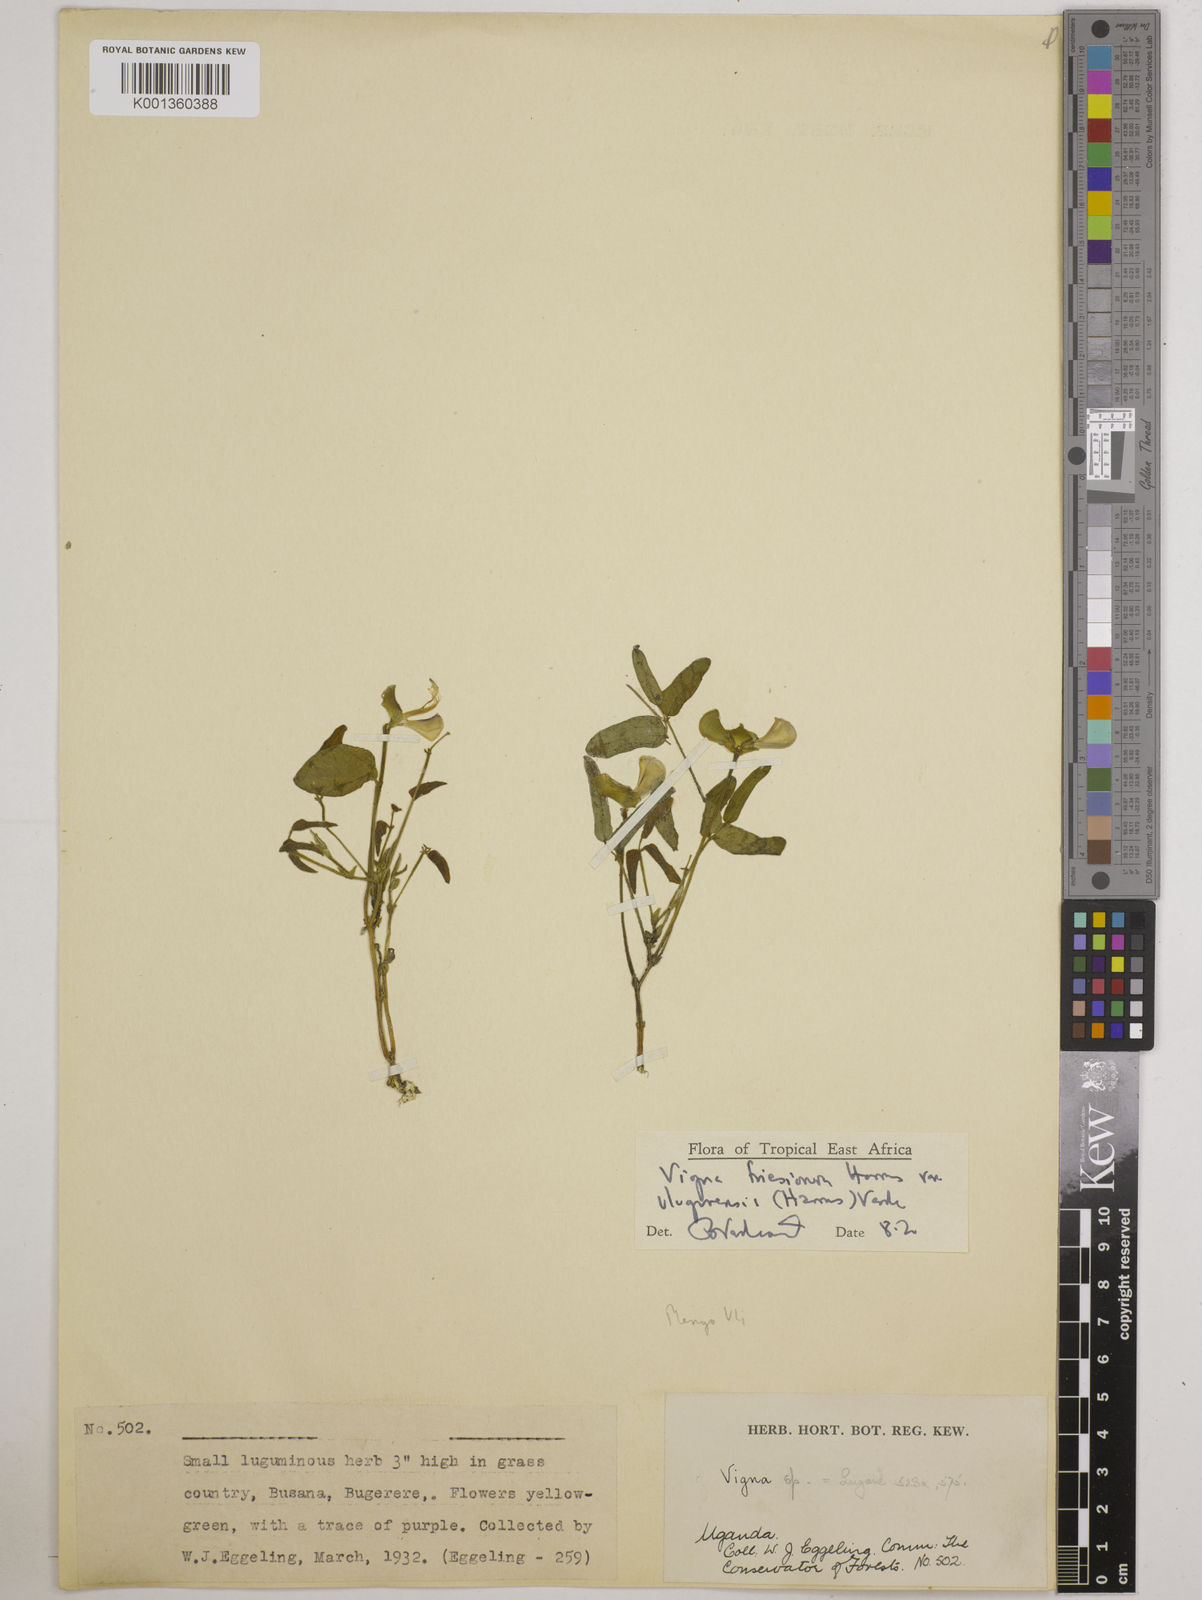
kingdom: Plantae
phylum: Tracheophyta
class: Magnoliopsida
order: Fabales
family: Fabaceae
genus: Vigna
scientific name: Vigna
